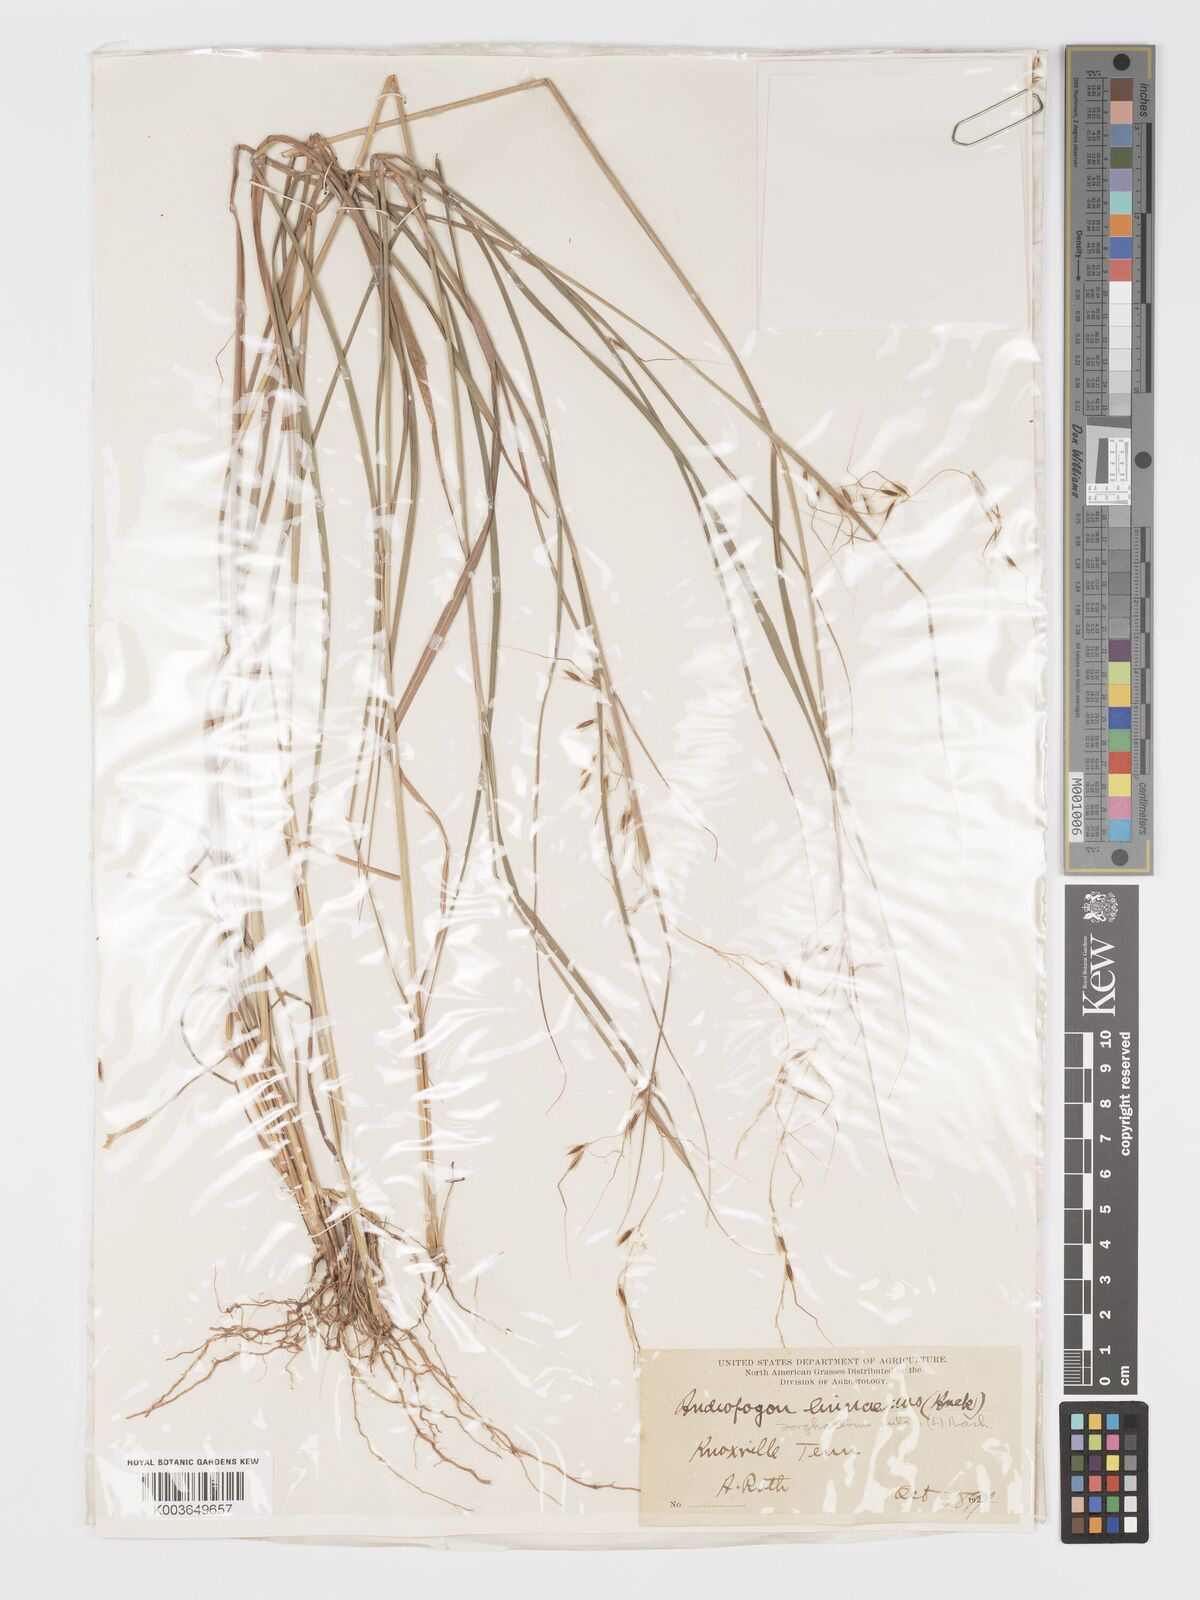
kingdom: Plantae
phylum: Tracheophyta
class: Liliopsida
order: Poales
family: Poaceae
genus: Sorghastrum
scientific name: Sorghastrum nutans
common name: Indian grass
